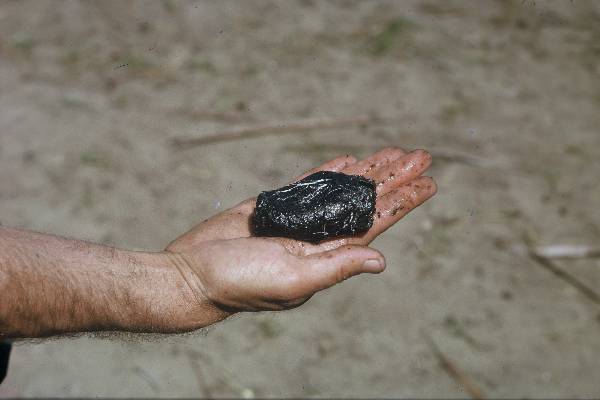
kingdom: Animalia
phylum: Chordata
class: Dipneusti
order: Ceratodontiformes
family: Protopteridae
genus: Protopterus
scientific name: Protopterus
